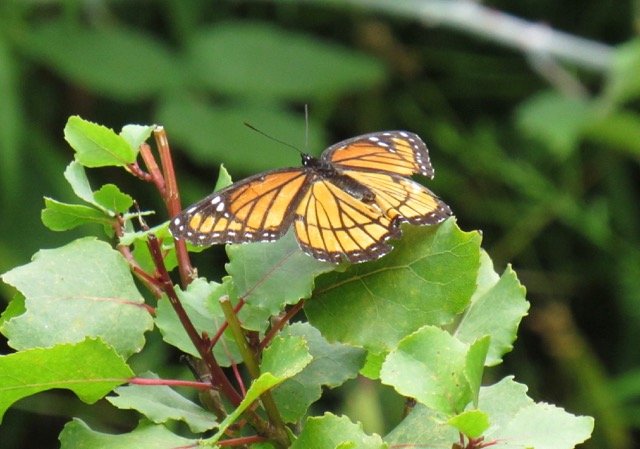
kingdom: Animalia
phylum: Arthropoda
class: Insecta
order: Lepidoptera
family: Nymphalidae
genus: Limenitis
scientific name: Limenitis archippus
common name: Viceroy
